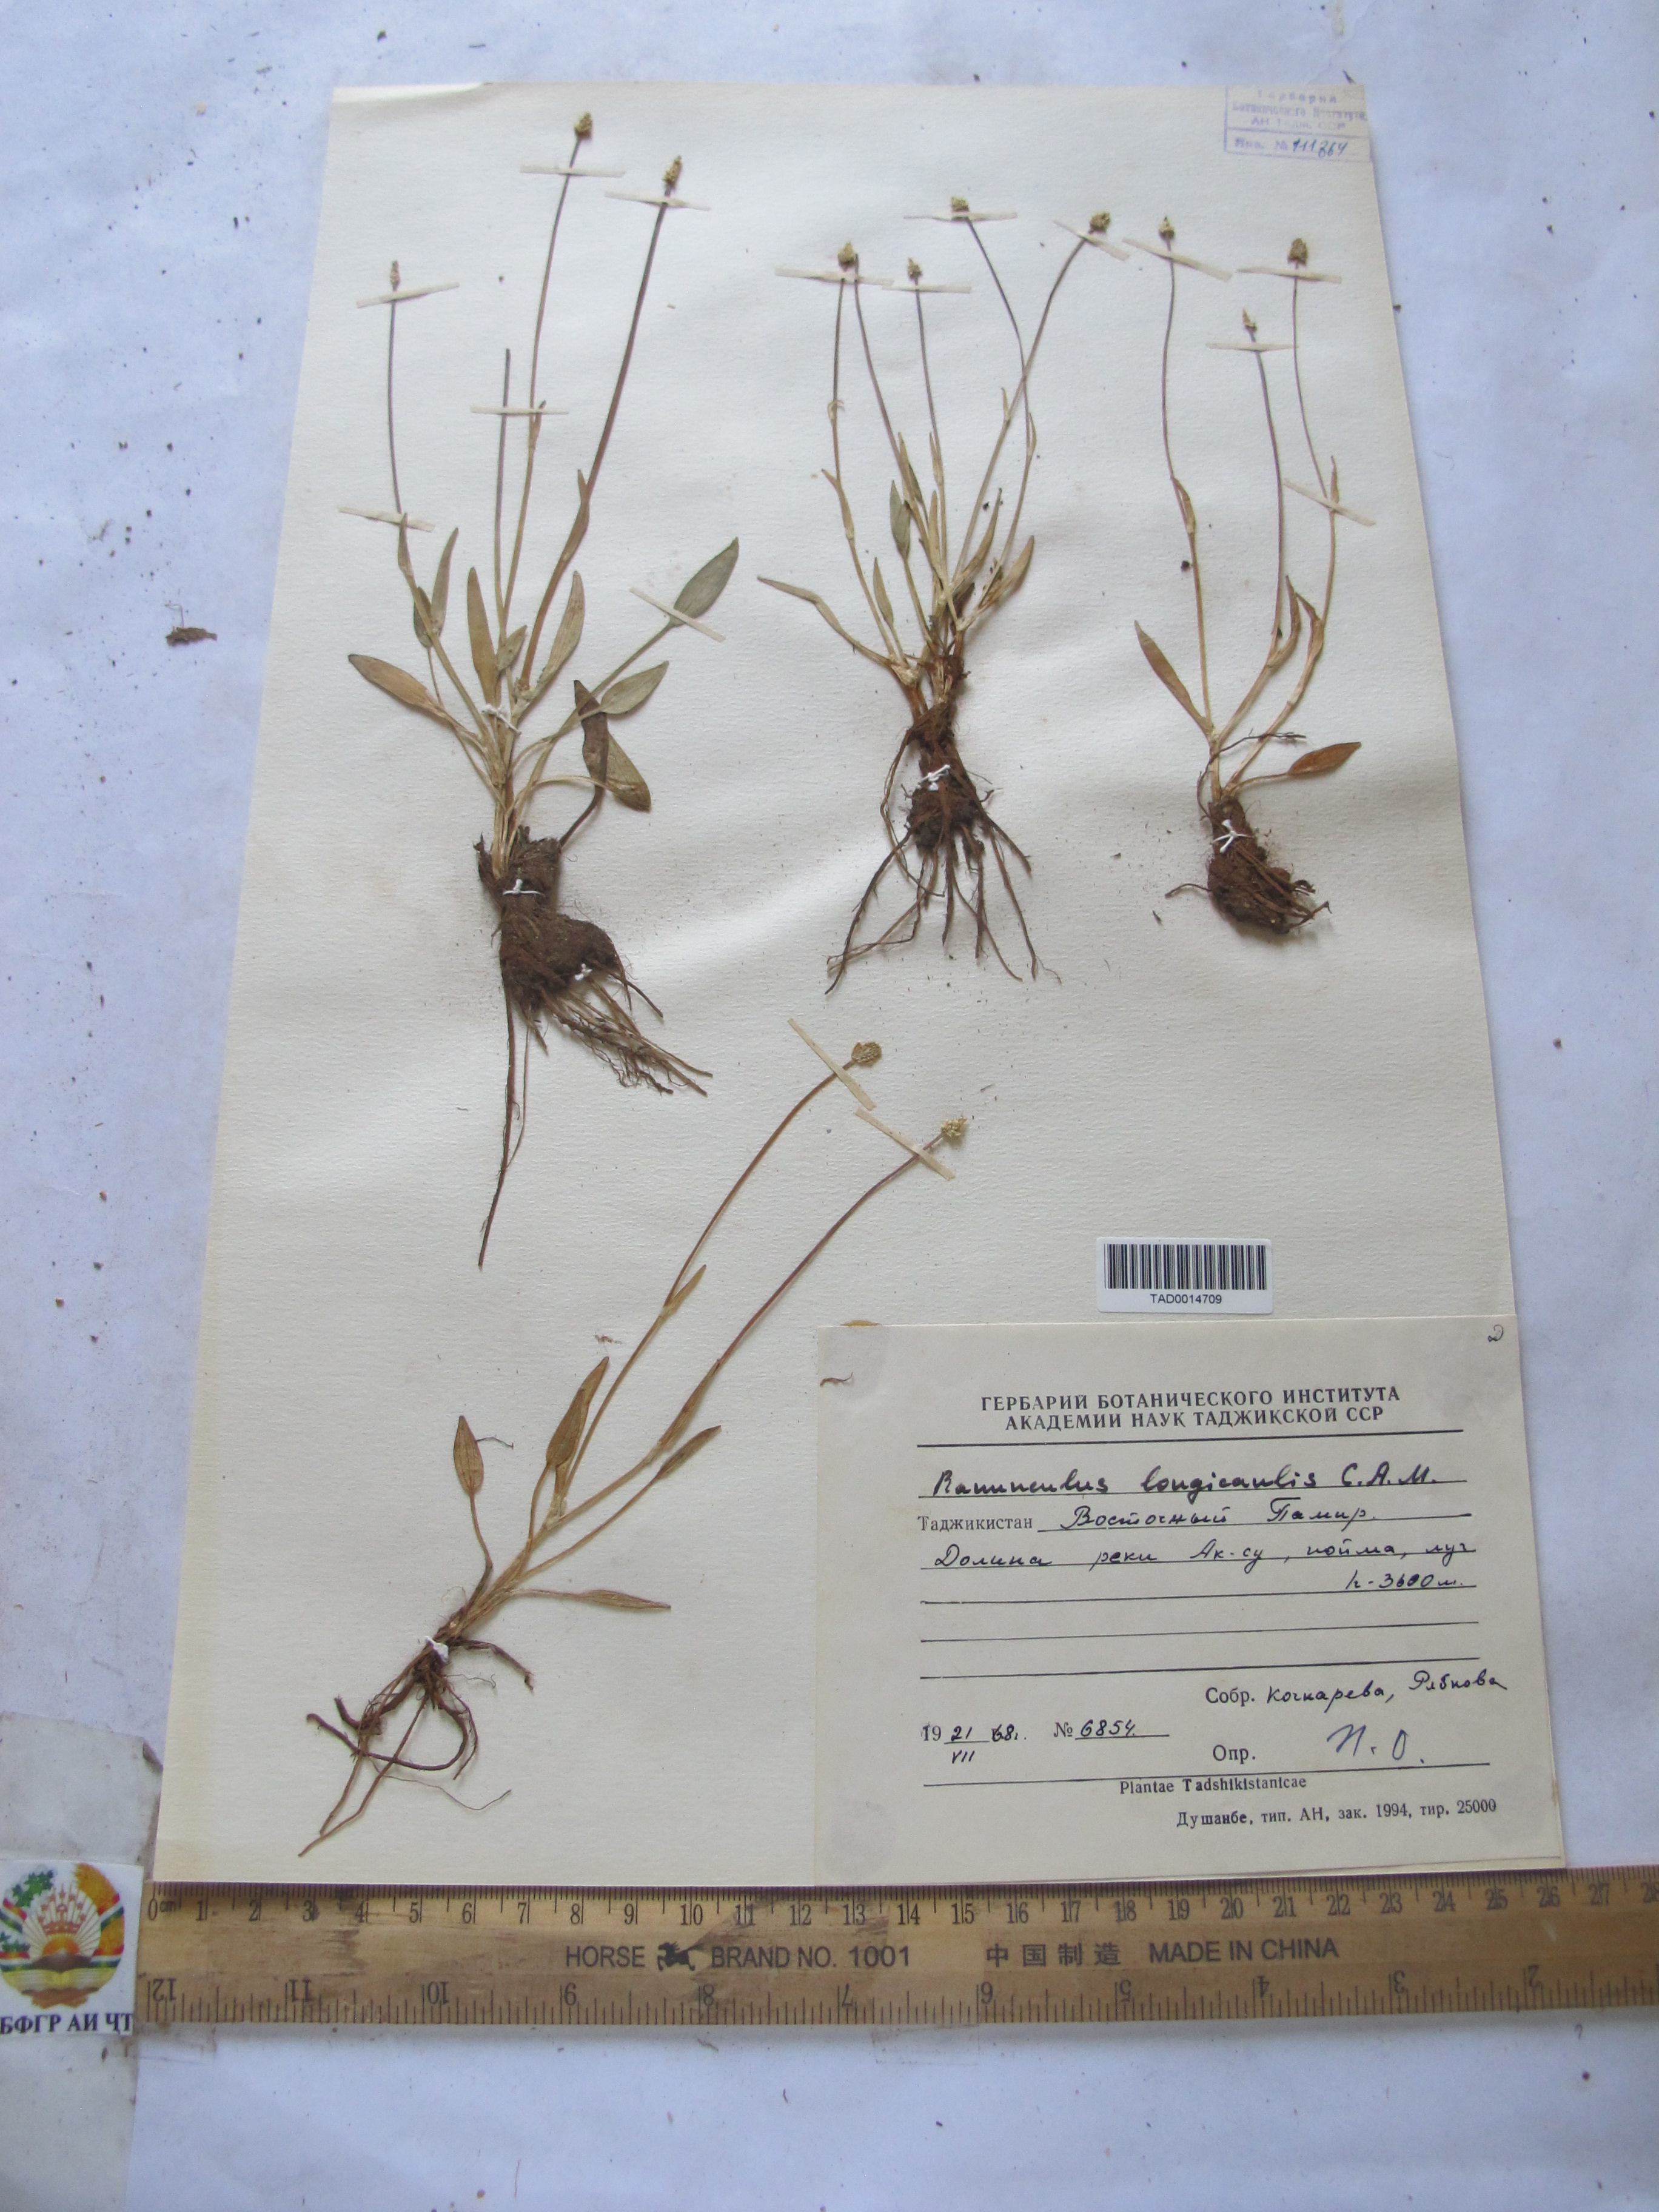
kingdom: Plantae
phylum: Tracheophyta
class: Magnoliopsida
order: Ranunculales
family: Ranunculaceae
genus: Ranunculus
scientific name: Ranunculus longicaulis
